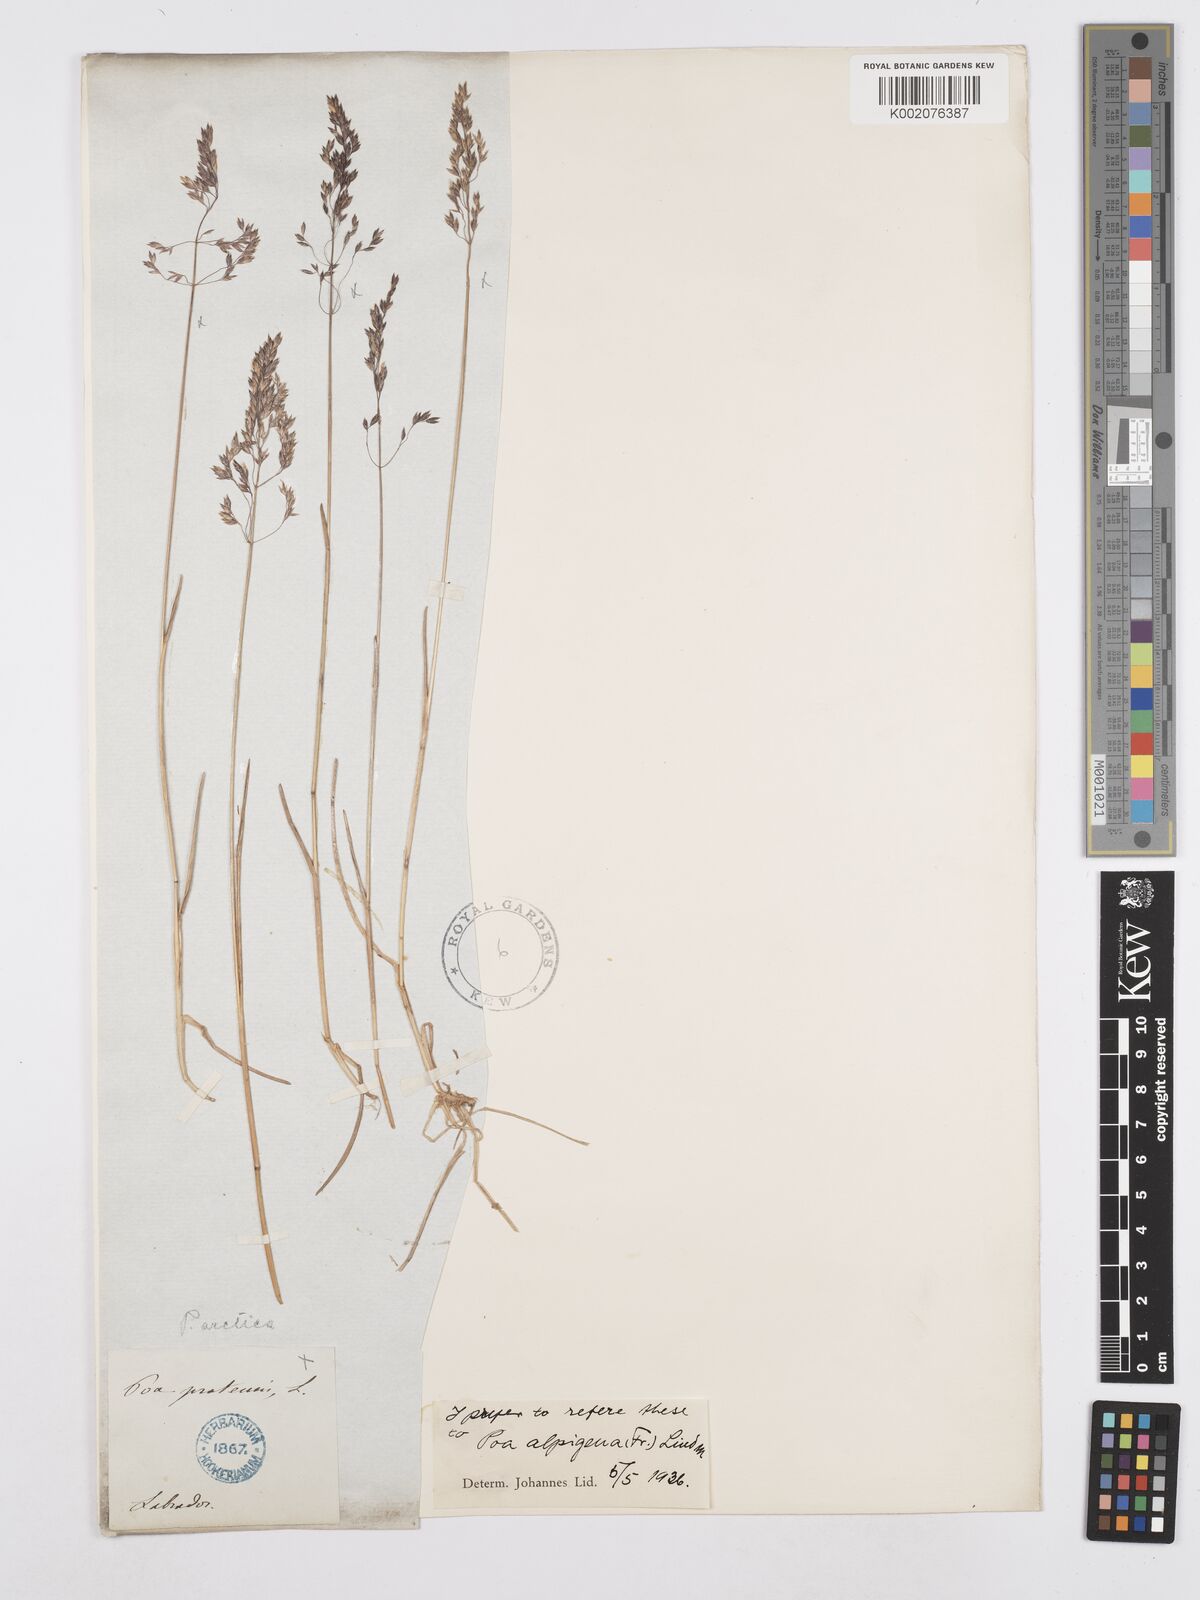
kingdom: Plantae
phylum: Tracheophyta
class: Liliopsida
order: Poales
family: Poaceae
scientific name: Poaceae
